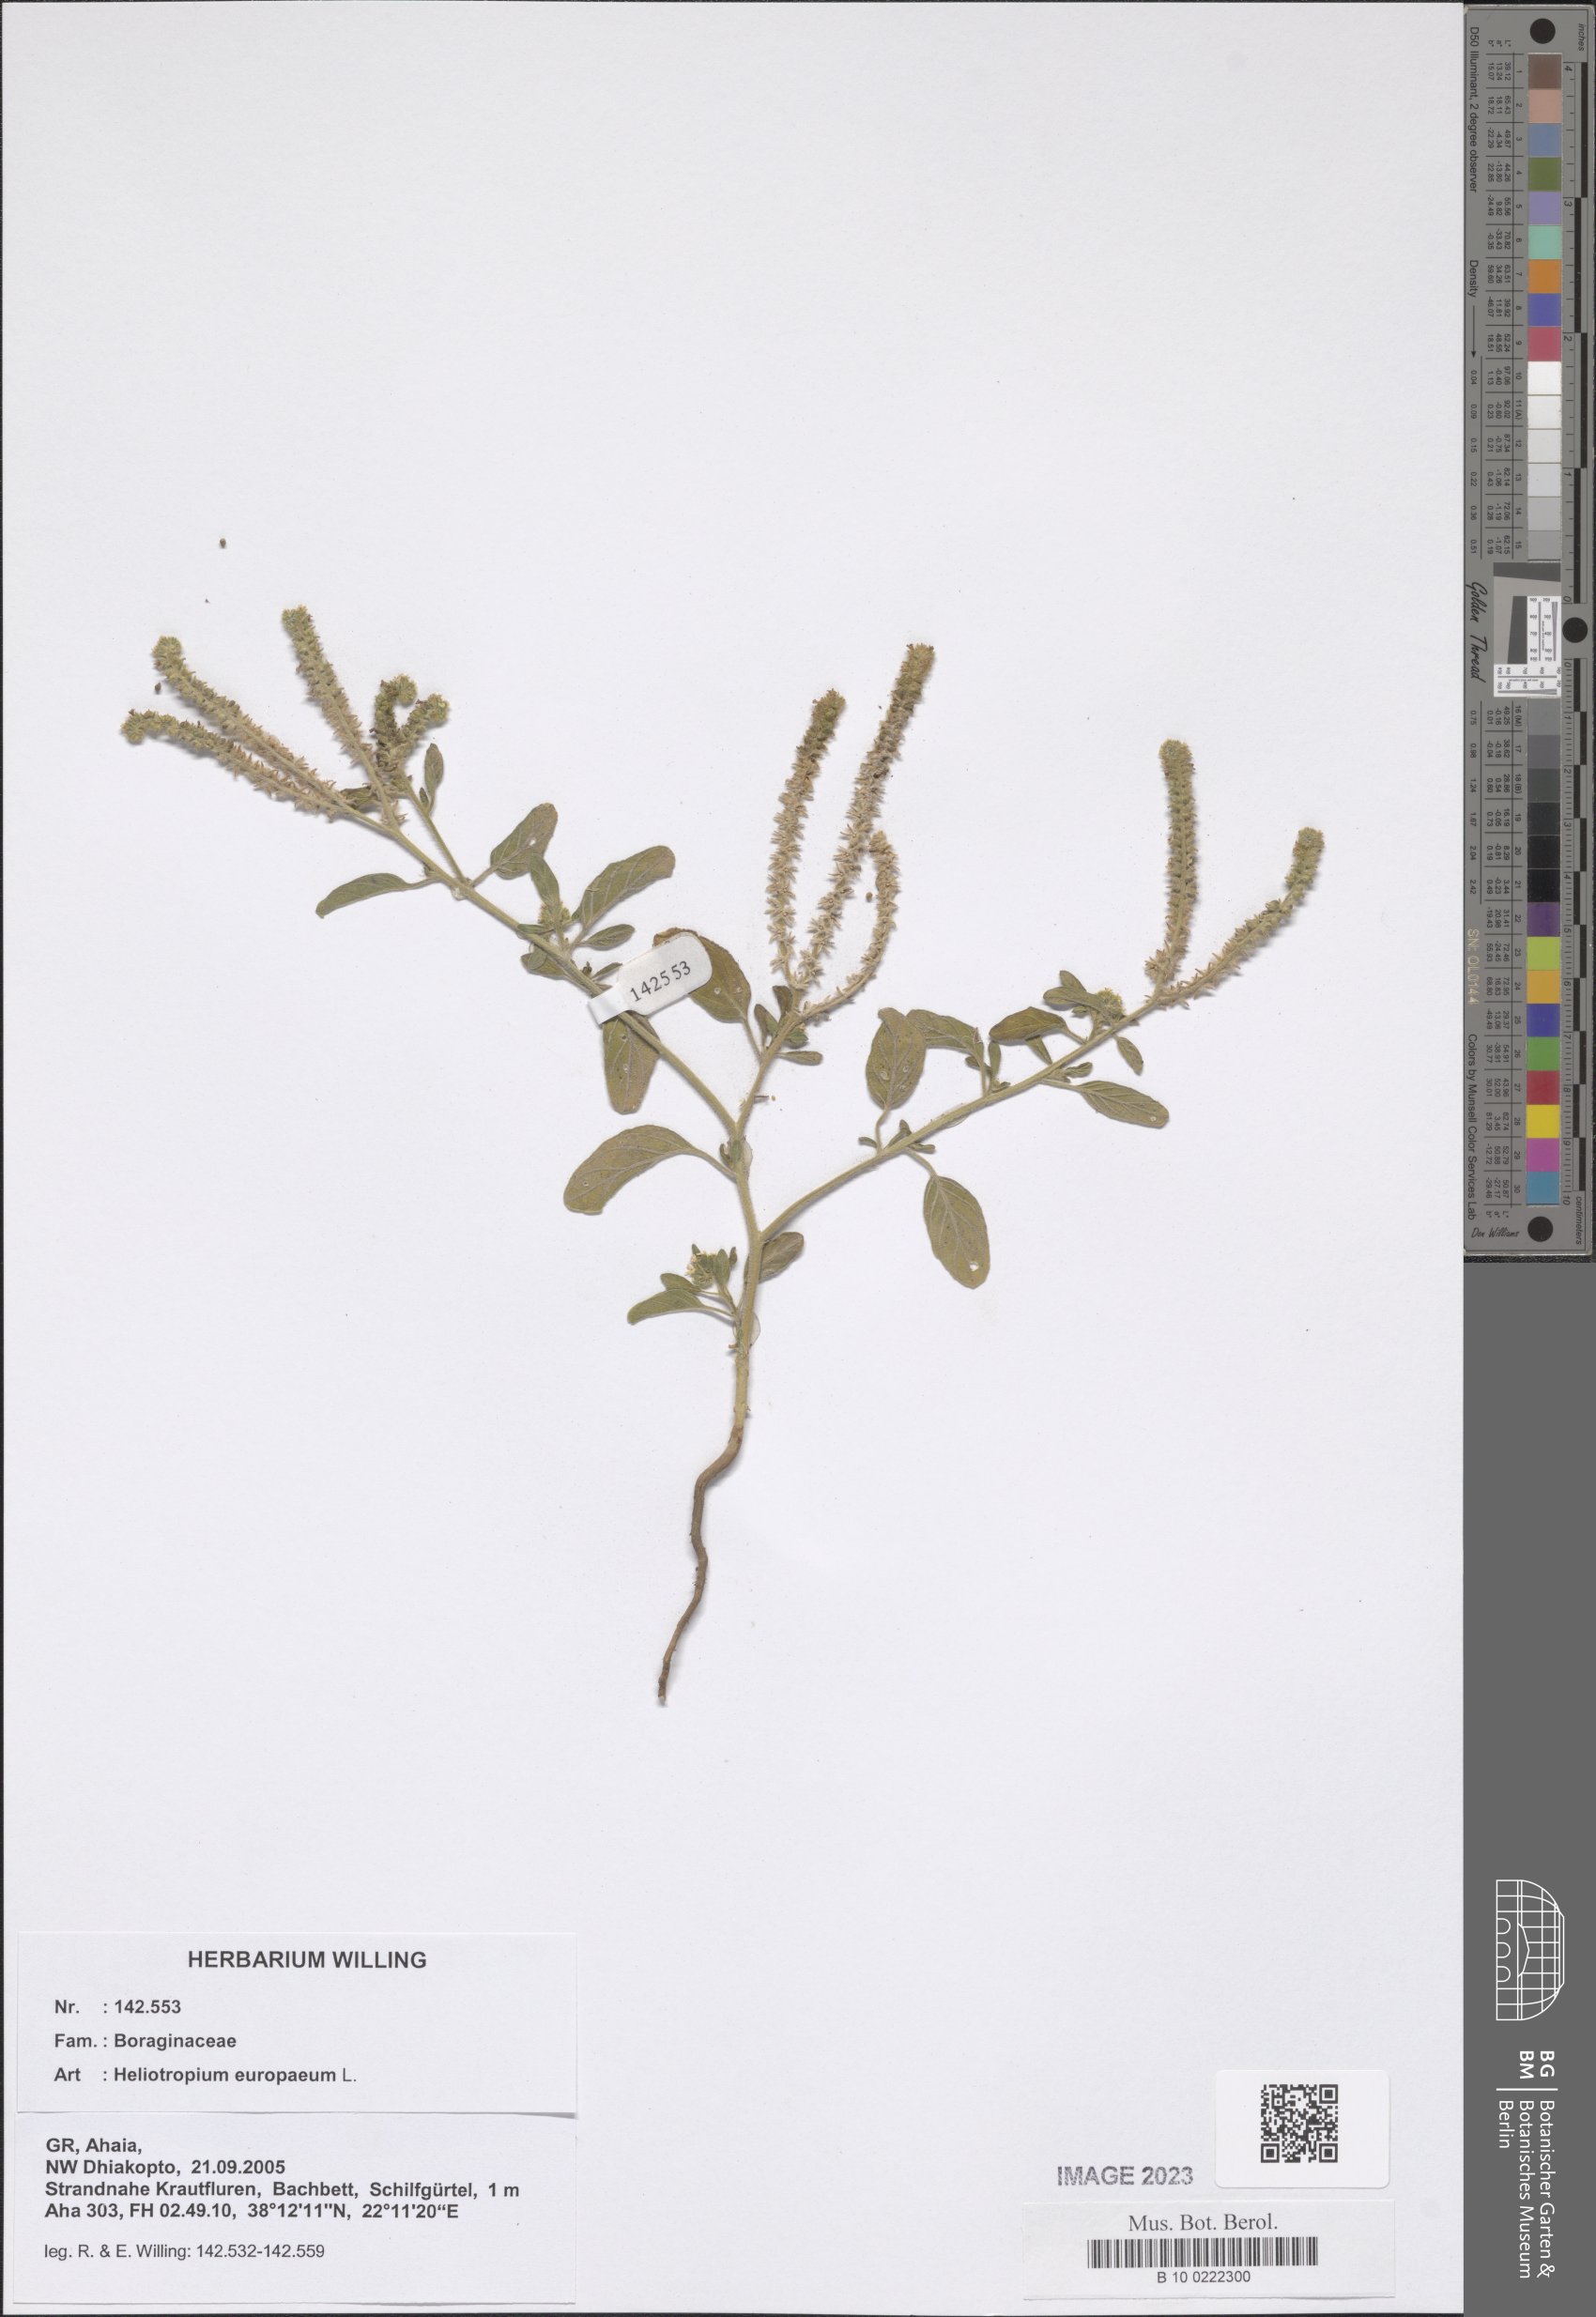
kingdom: Plantae
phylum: Tracheophyta
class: Magnoliopsida
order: Boraginales
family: Heliotropiaceae
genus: Heliotropium
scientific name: Heliotropium europaeum
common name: European heliotrope
